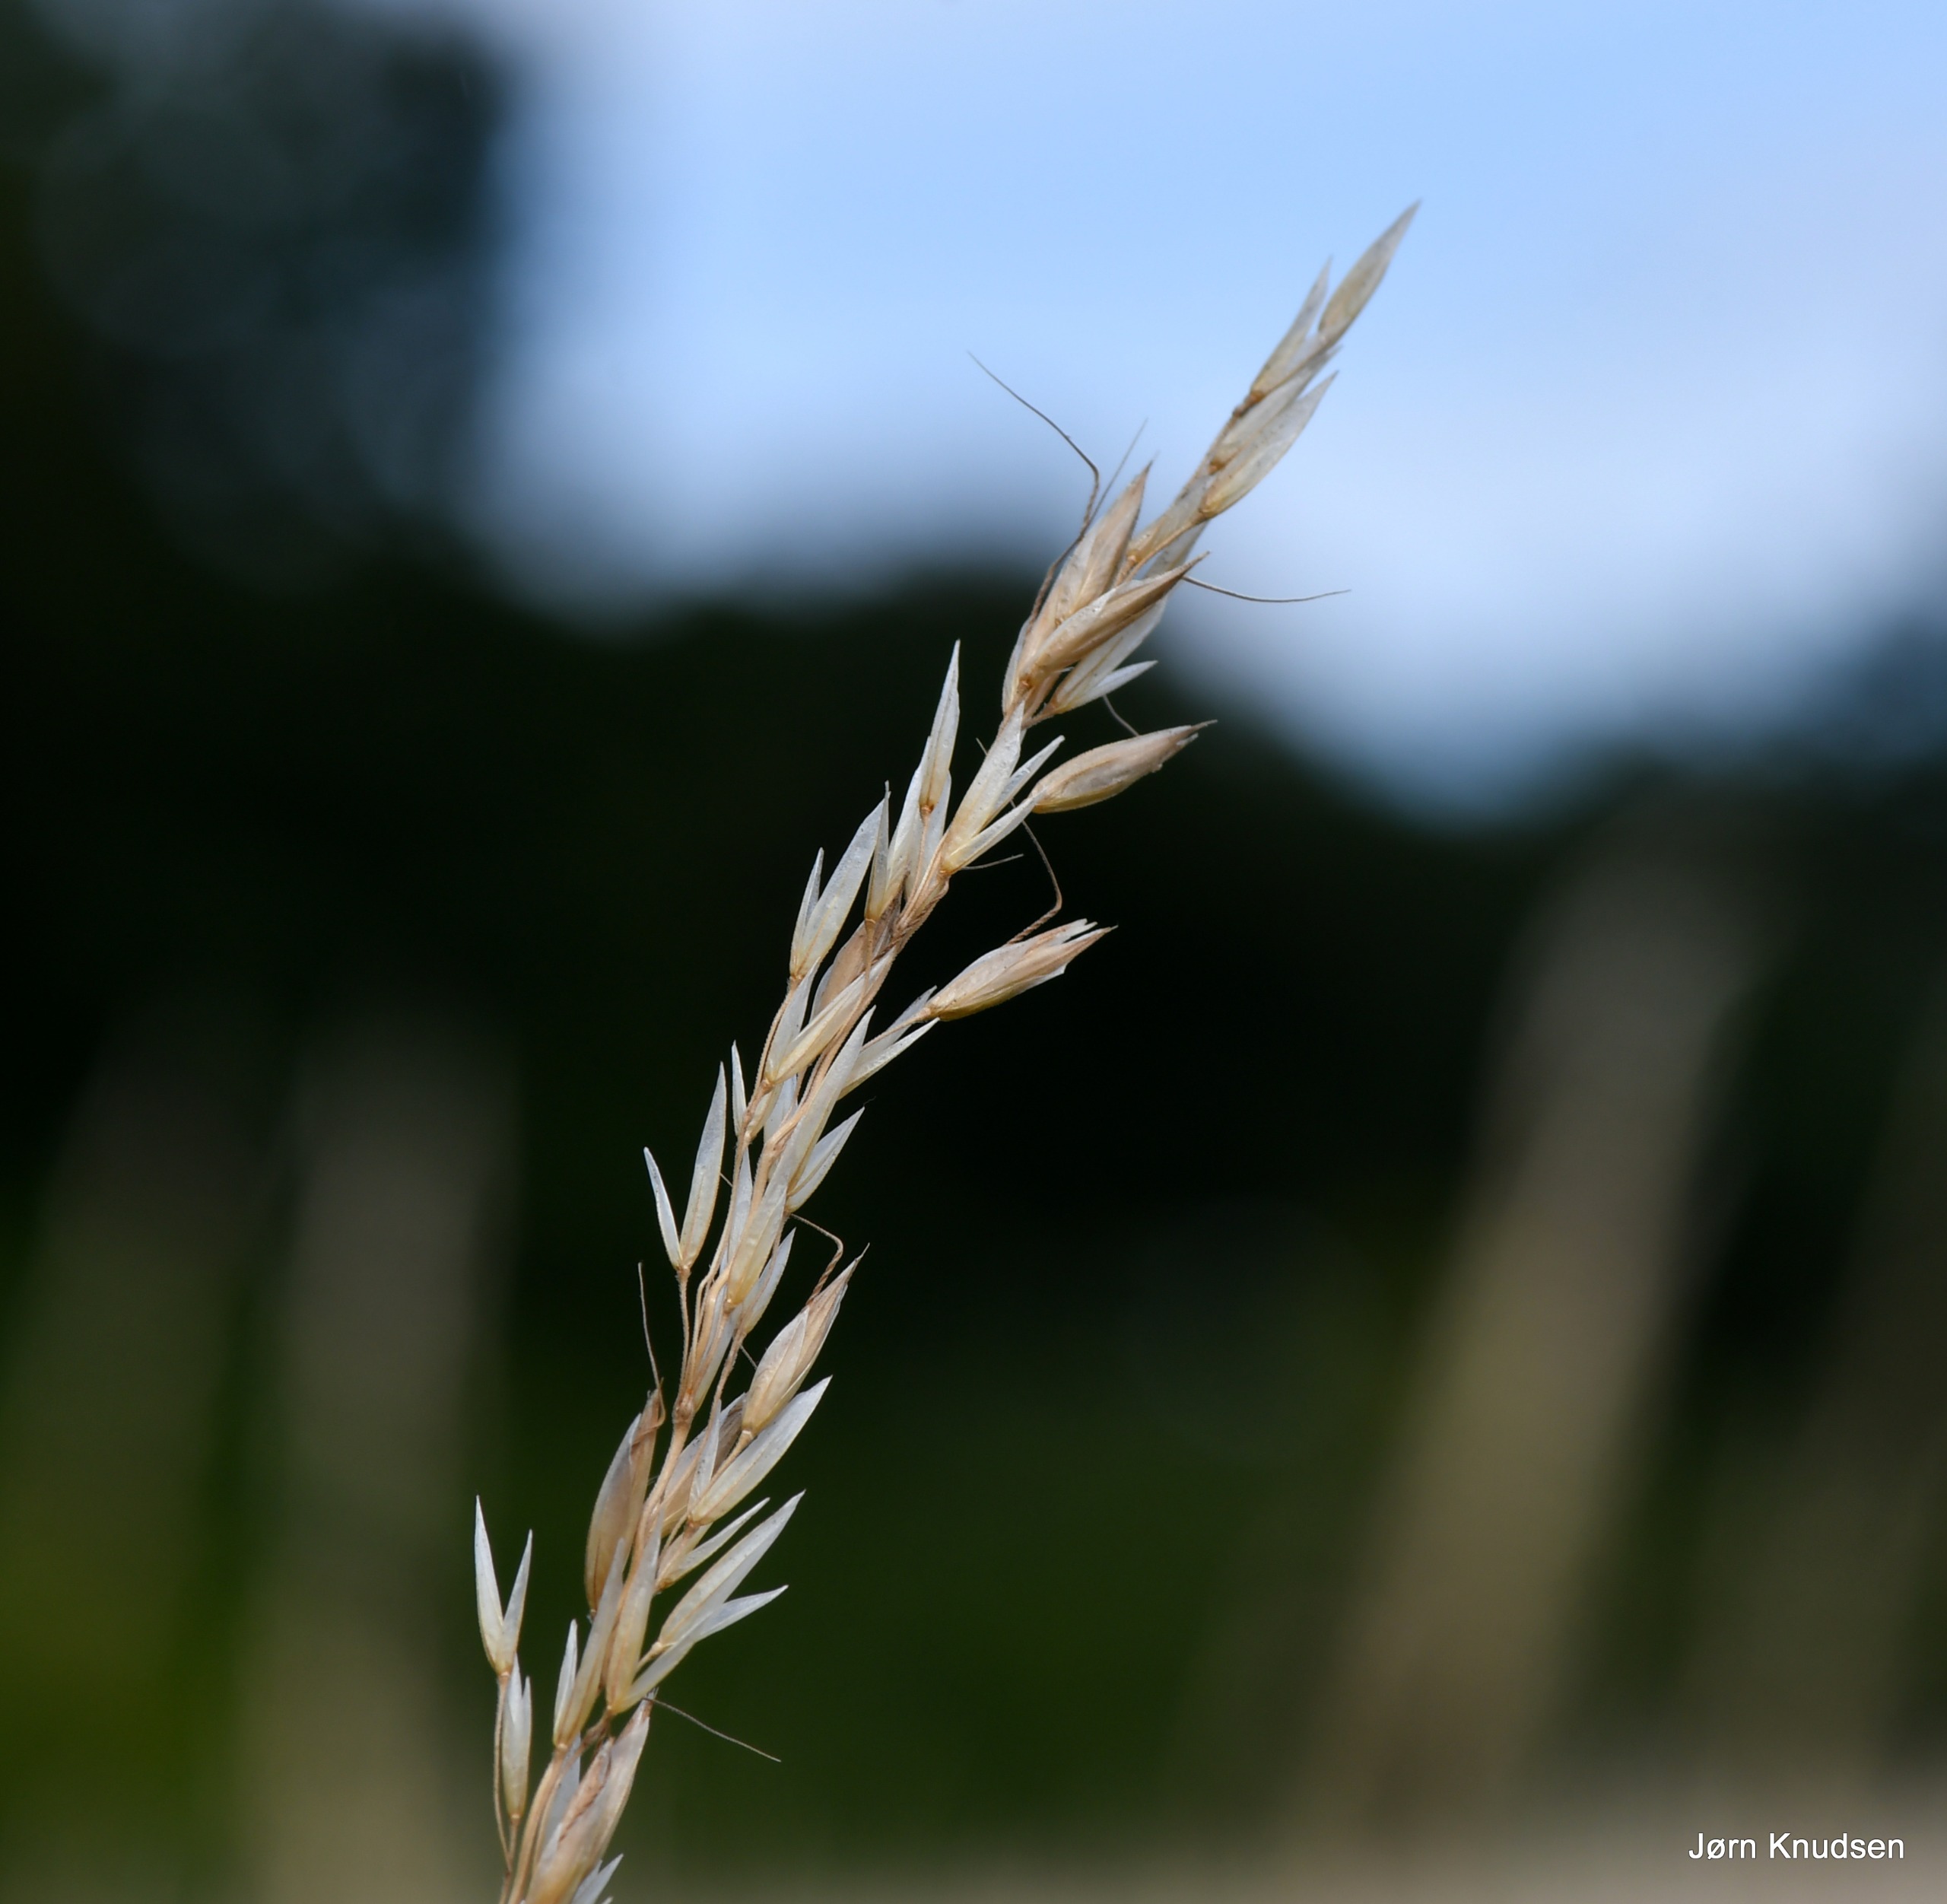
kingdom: Plantae
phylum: Tracheophyta
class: Liliopsida
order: Poales
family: Poaceae
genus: Arrhenatherum
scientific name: Arrhenatherum elatius
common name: Draphavre
